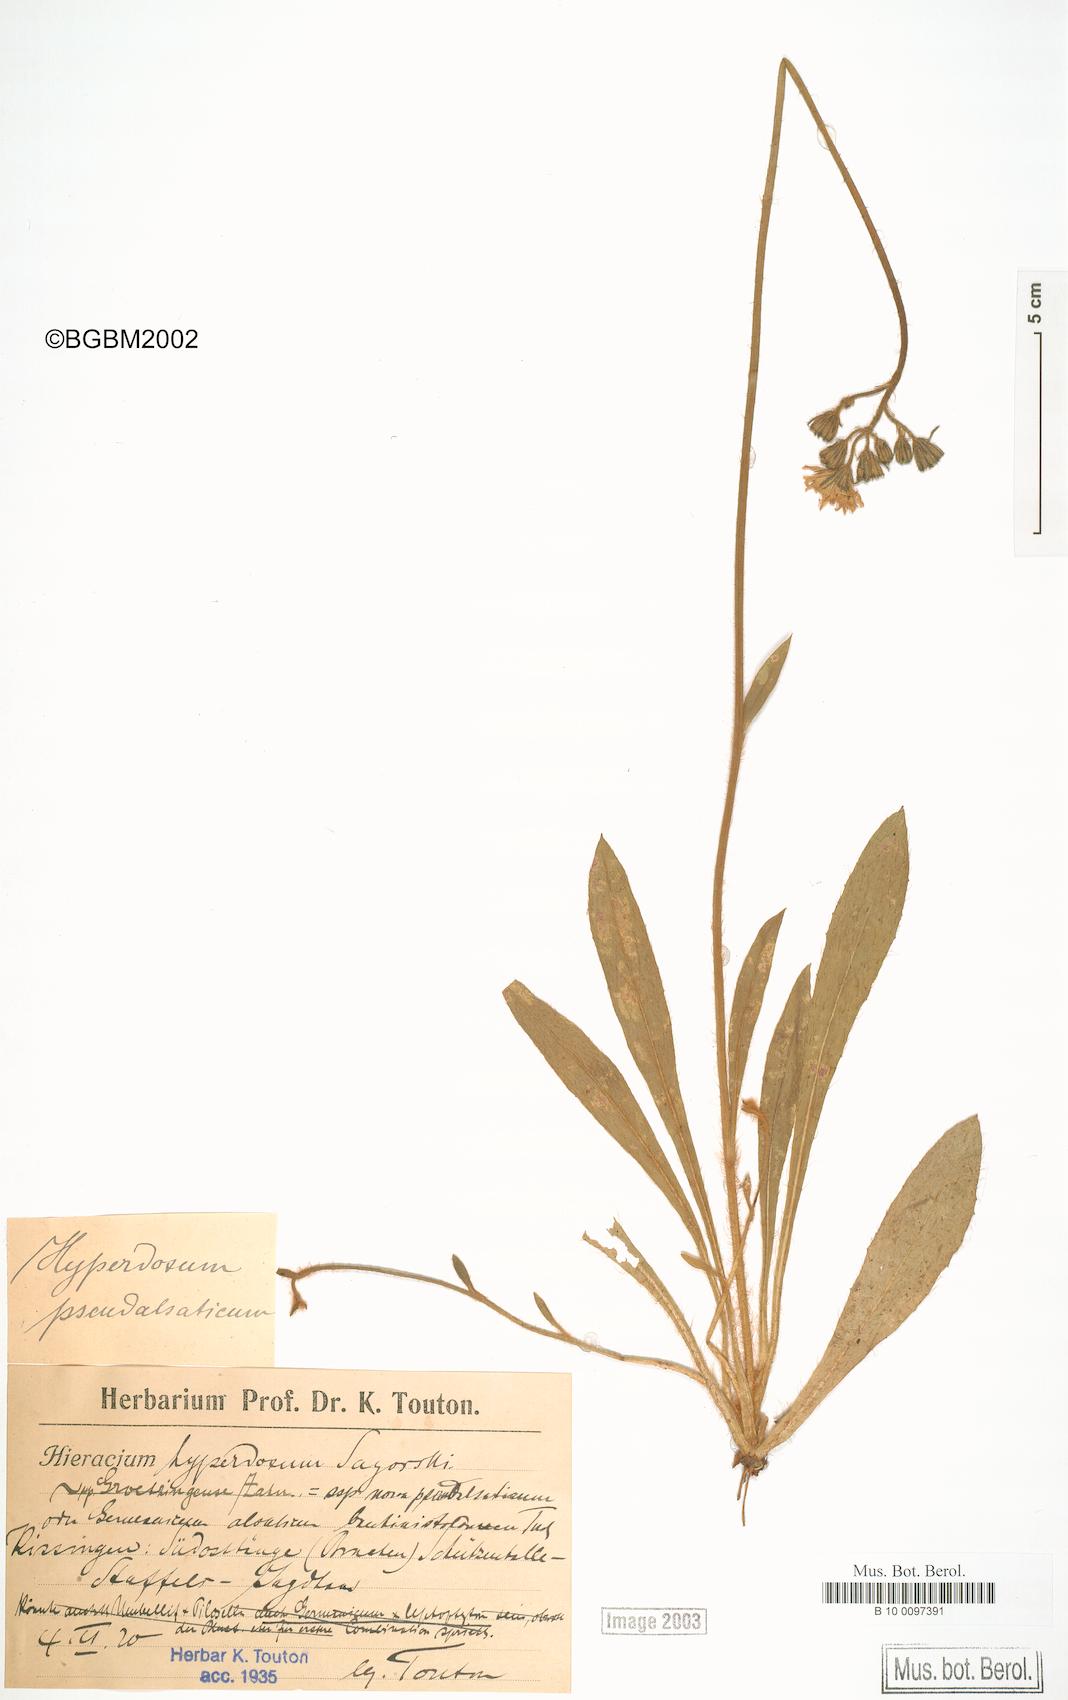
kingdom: Plantae
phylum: Tracheophyta
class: Magnoliopsida
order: Asterales
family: Asteraceae
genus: Pilosella
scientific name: Pilosella fallacina
